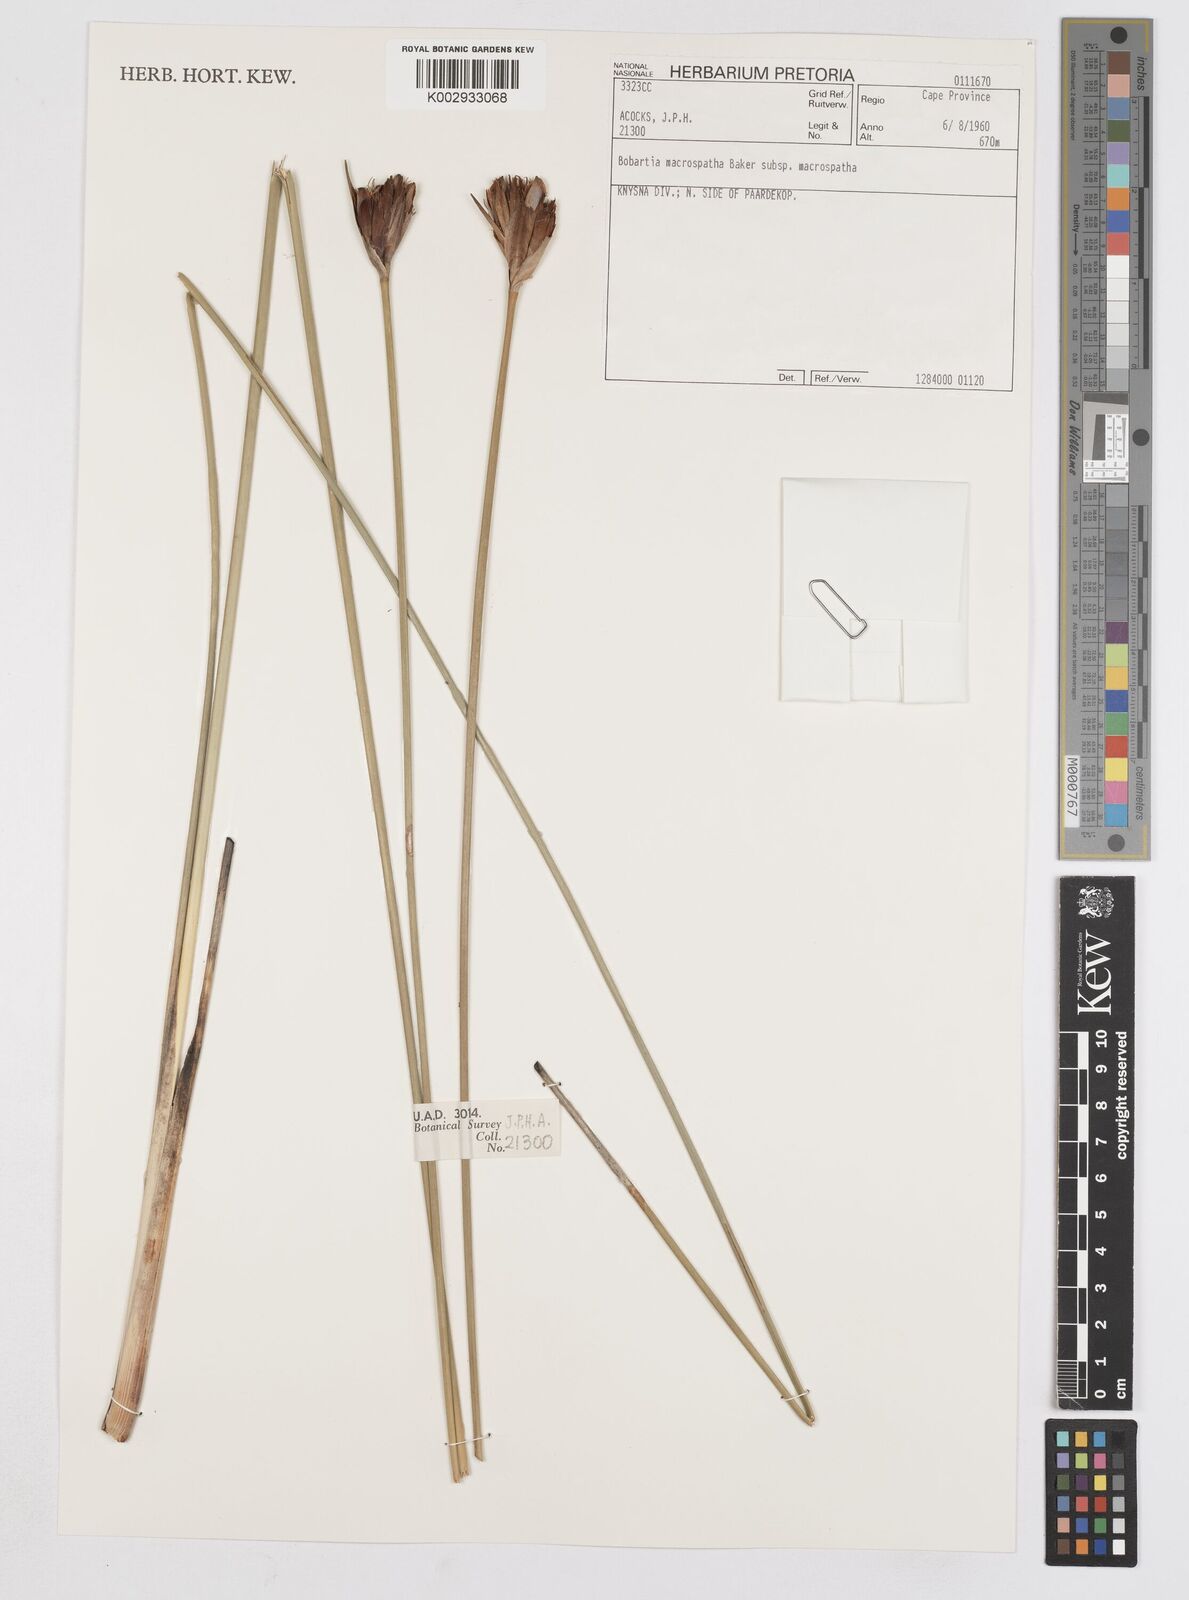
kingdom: Plantae
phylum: Tracheophyta
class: Liliopsida
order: Asparagales
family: Iridaceae
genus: Bobartia
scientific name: Bobartia macrospatha
